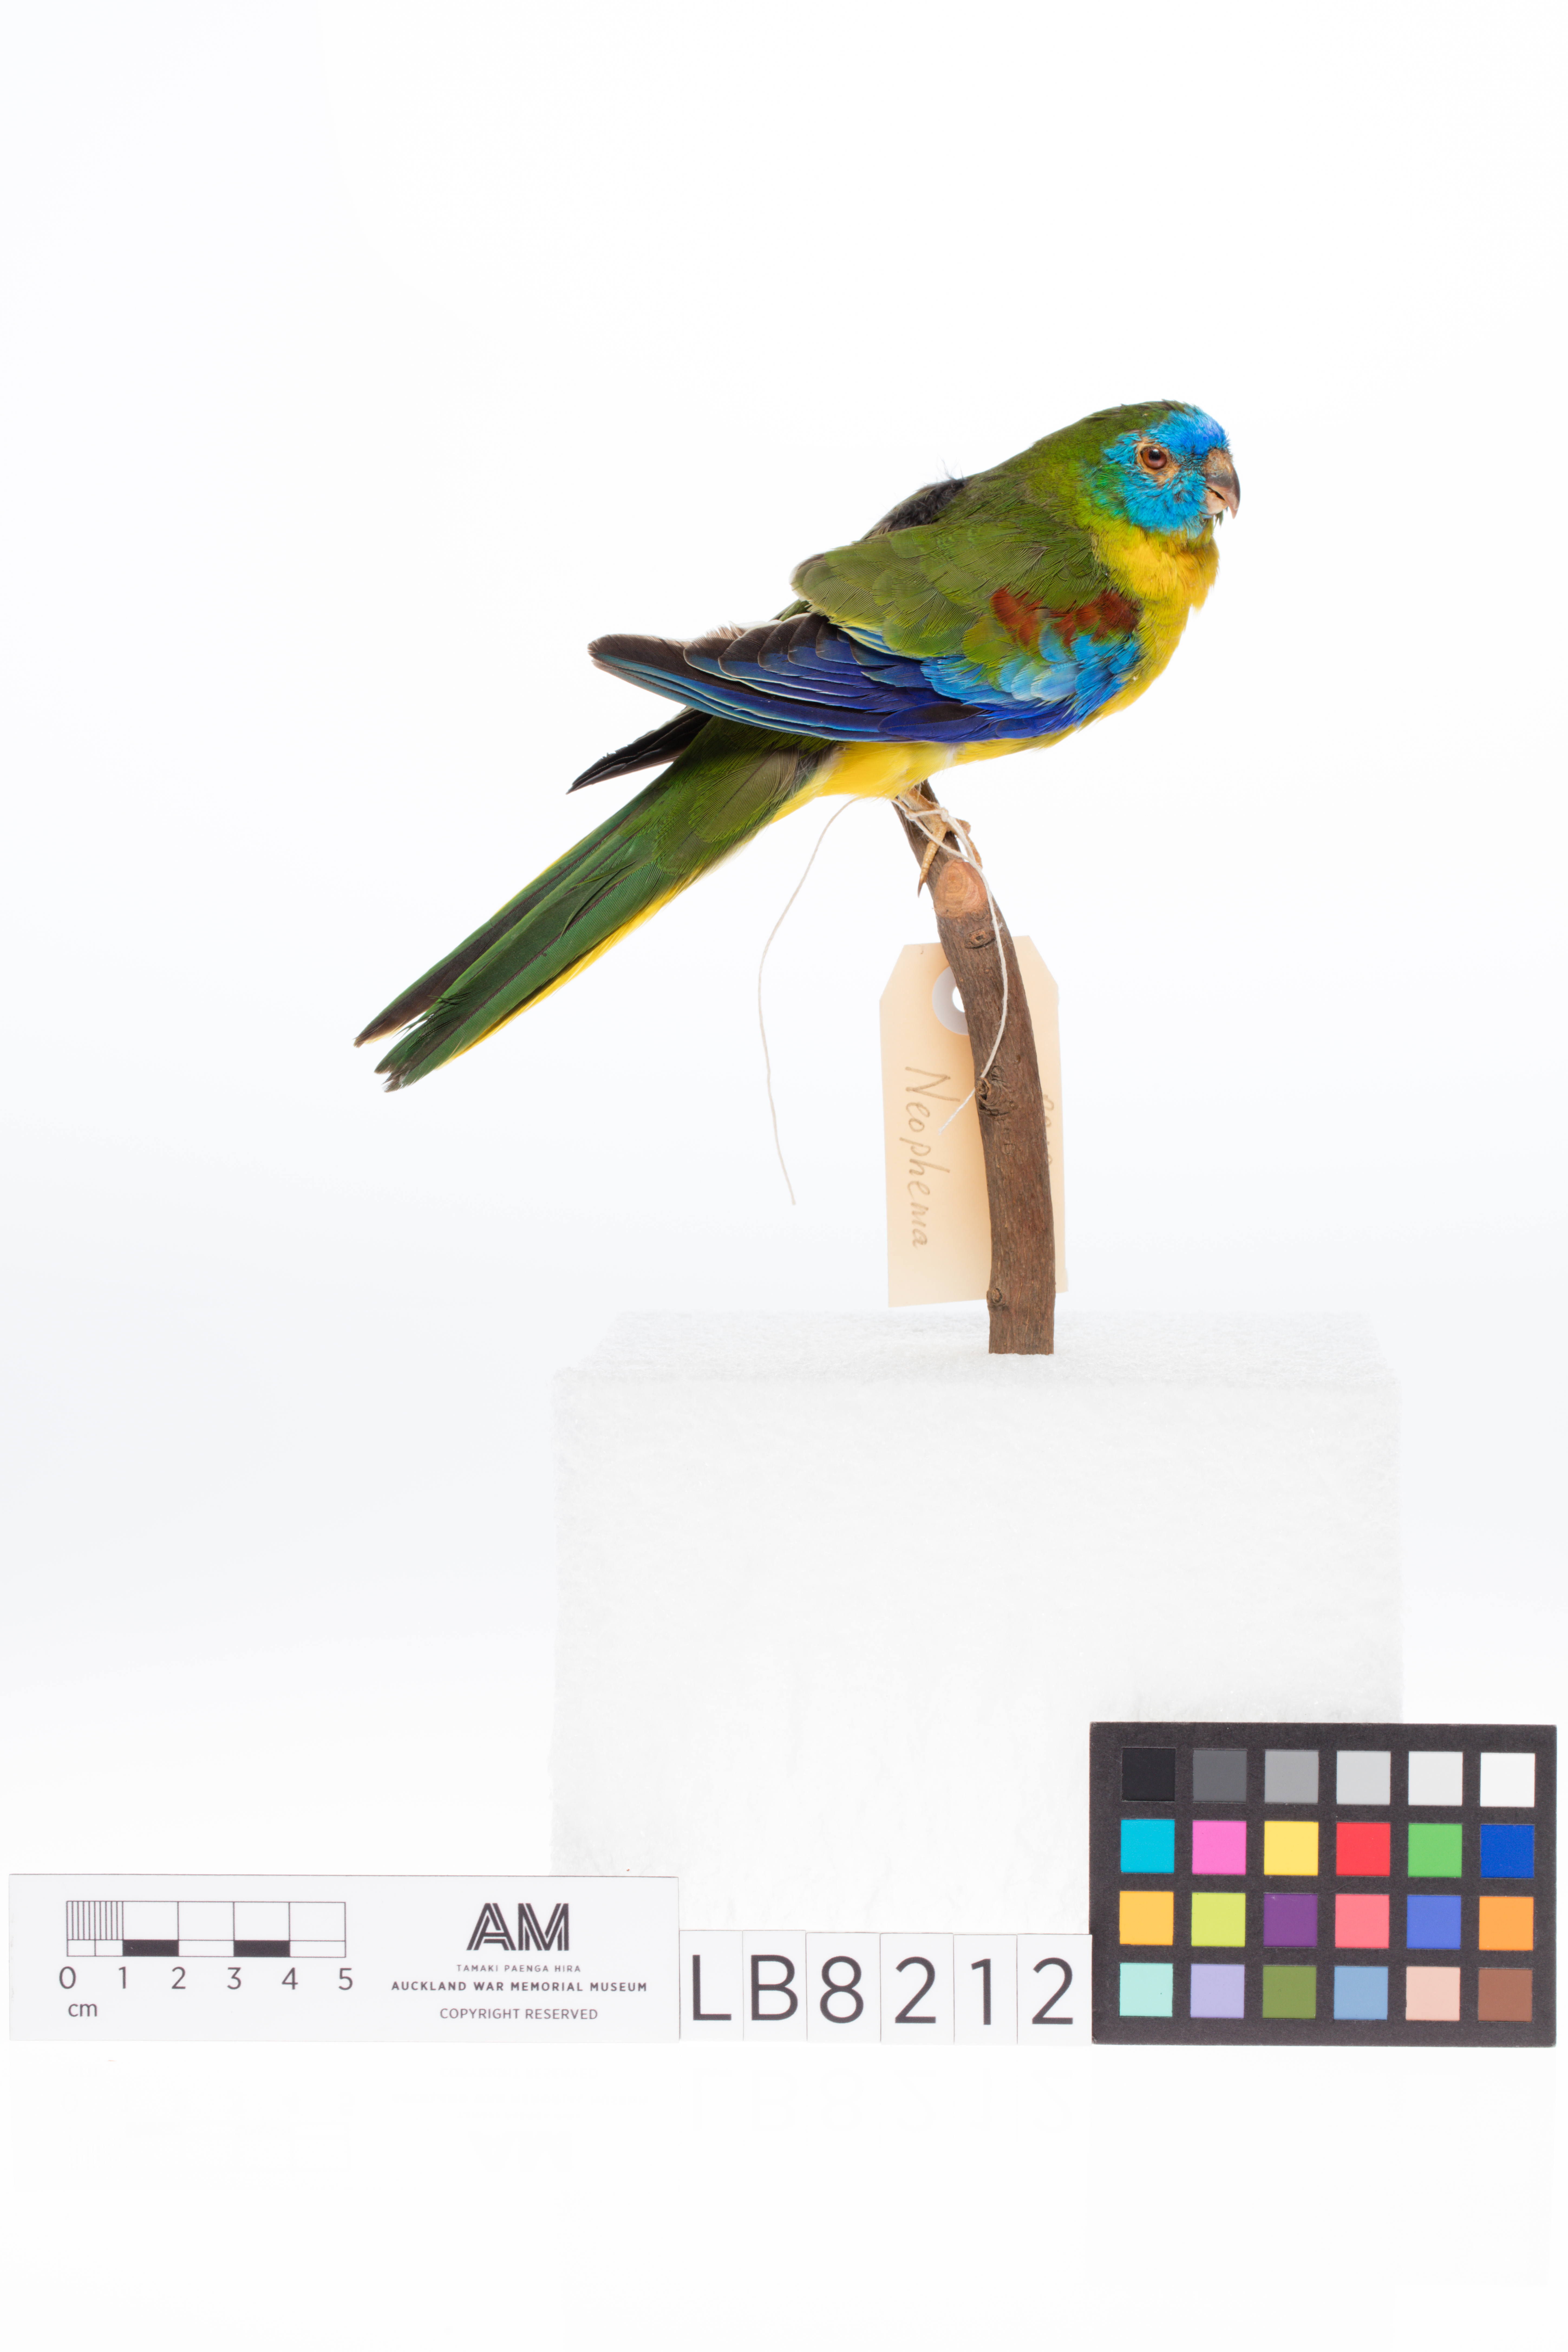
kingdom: Animalia
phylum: Chordata
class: Aves
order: Psittaciformes
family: Psittacidae
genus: Neophema
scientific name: Neophema pulchella
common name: Turquoise parrot
